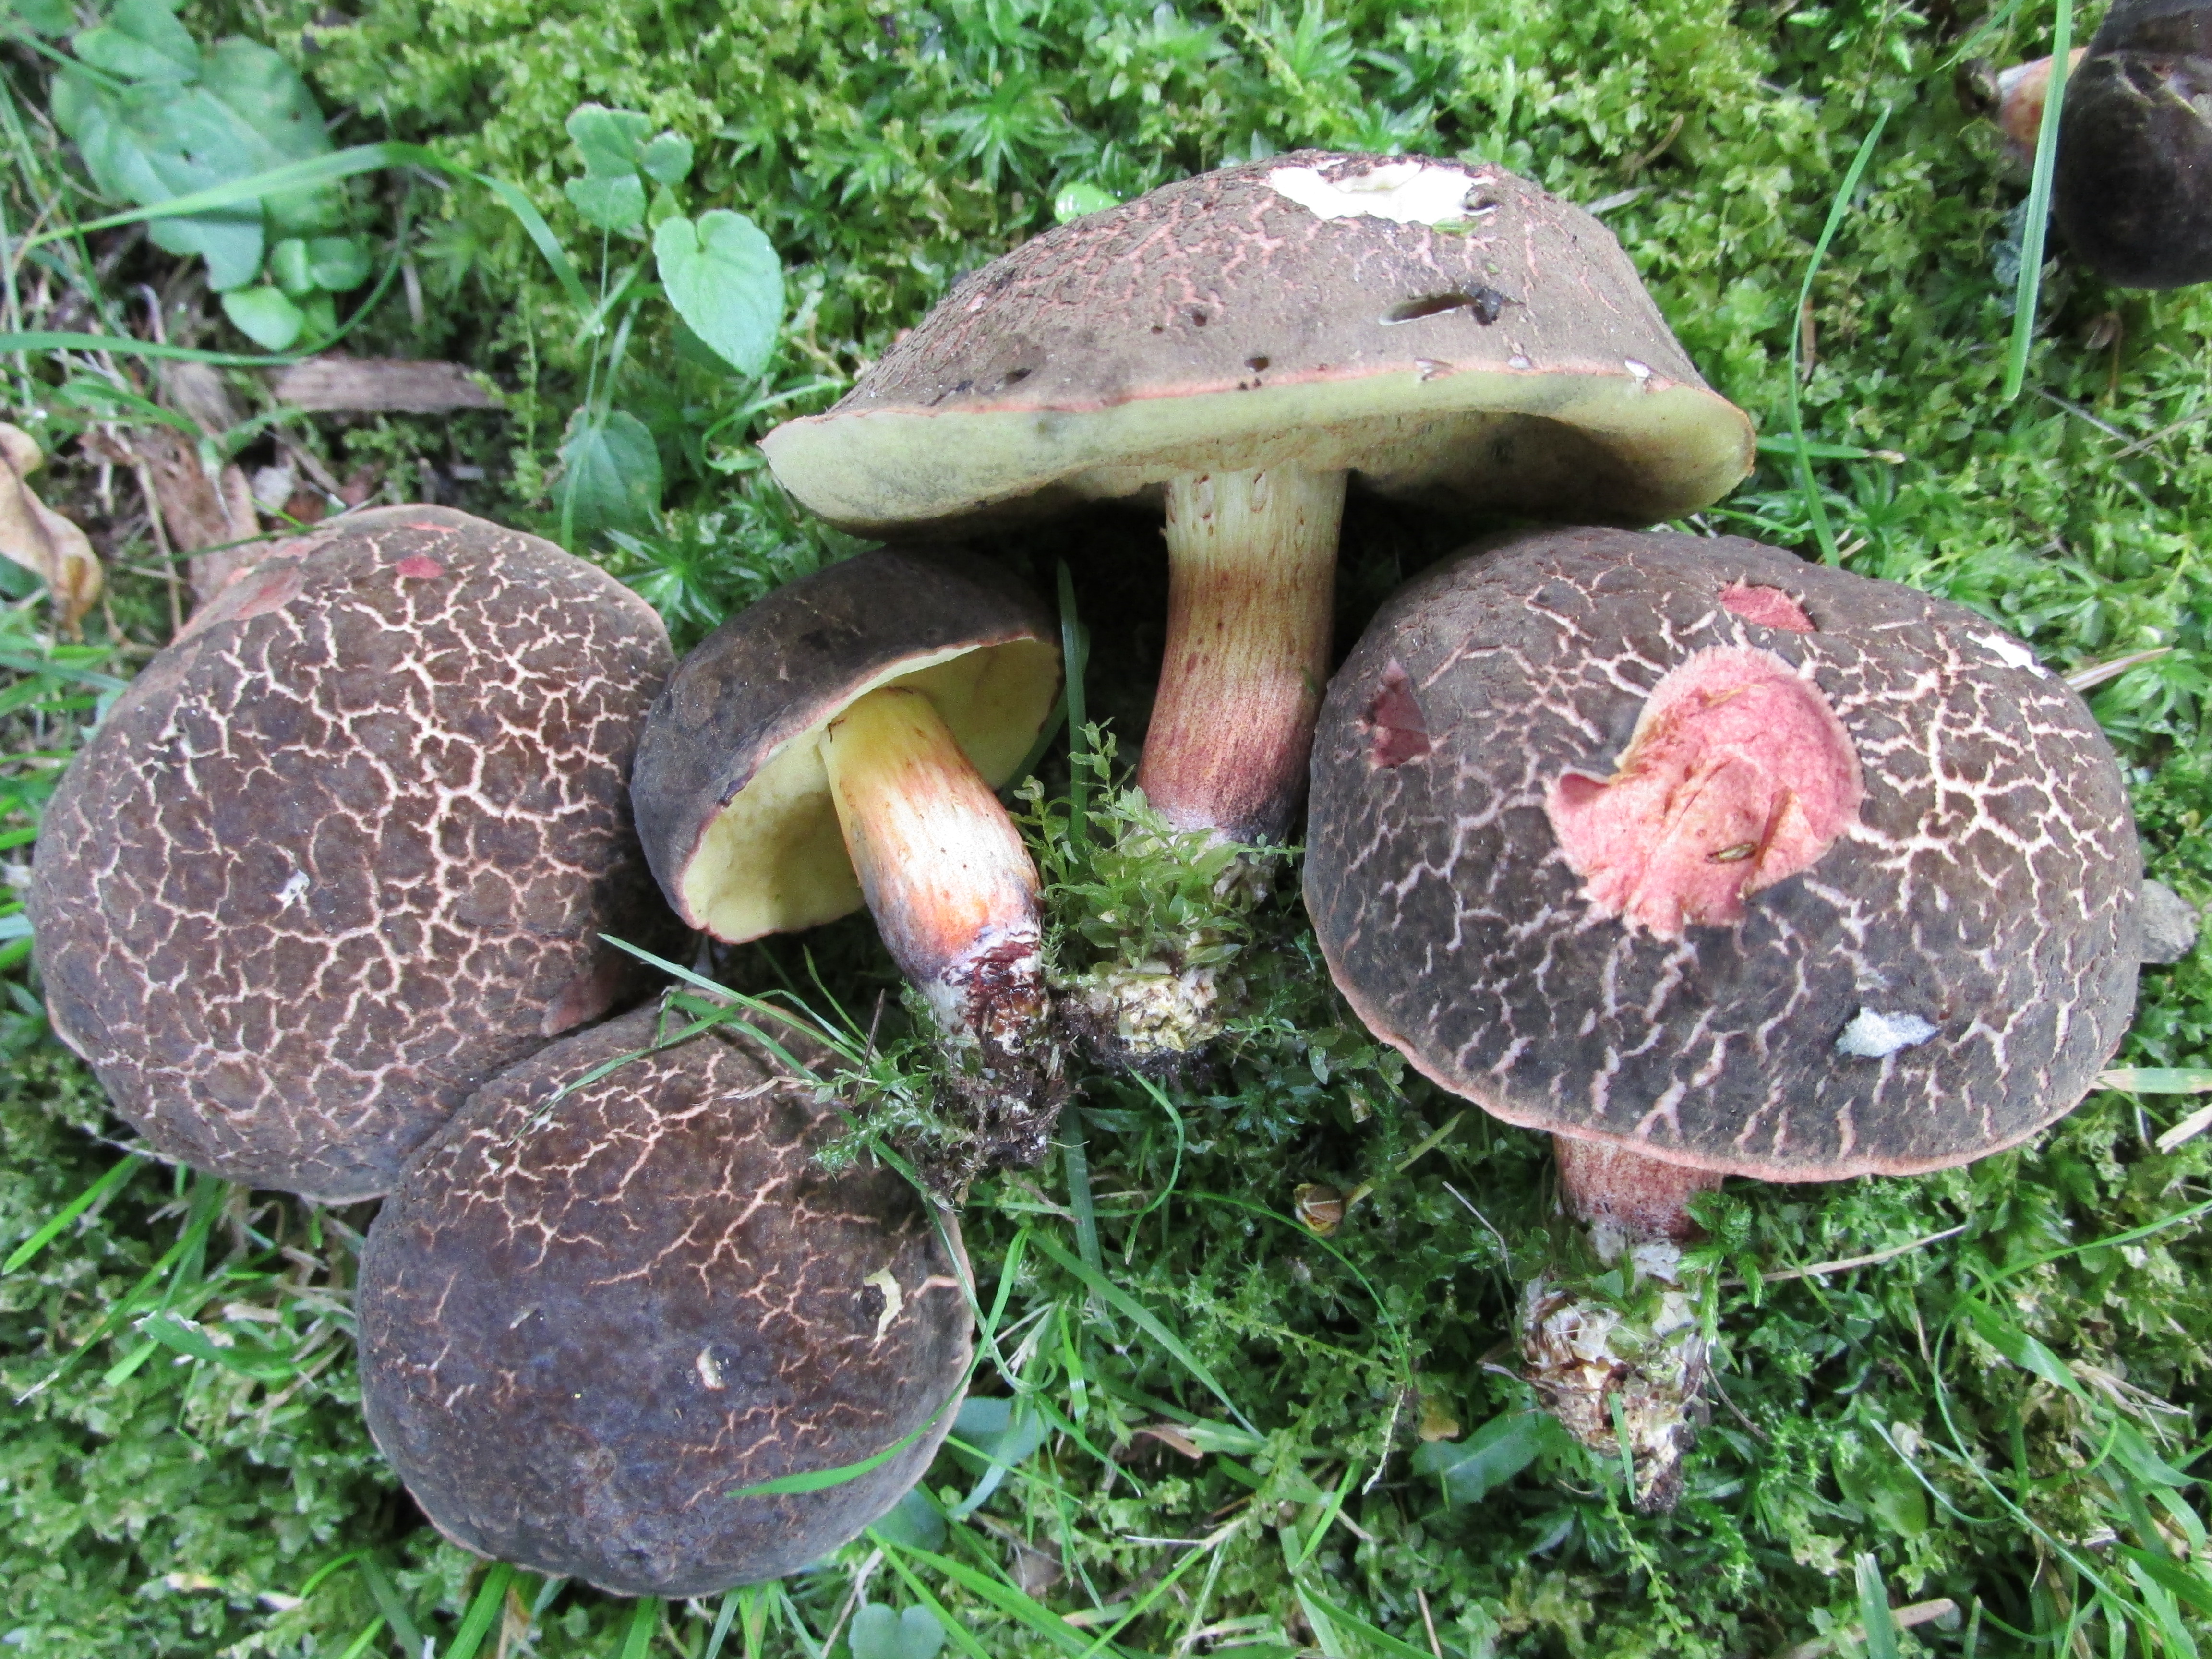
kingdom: Fungi
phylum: Basidiomycota
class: Agaricomycetes
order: Boletales
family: Boletaceae
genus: Xerocomellus
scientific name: Xerocomellus chrysenteron
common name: Red-cracking bolete
